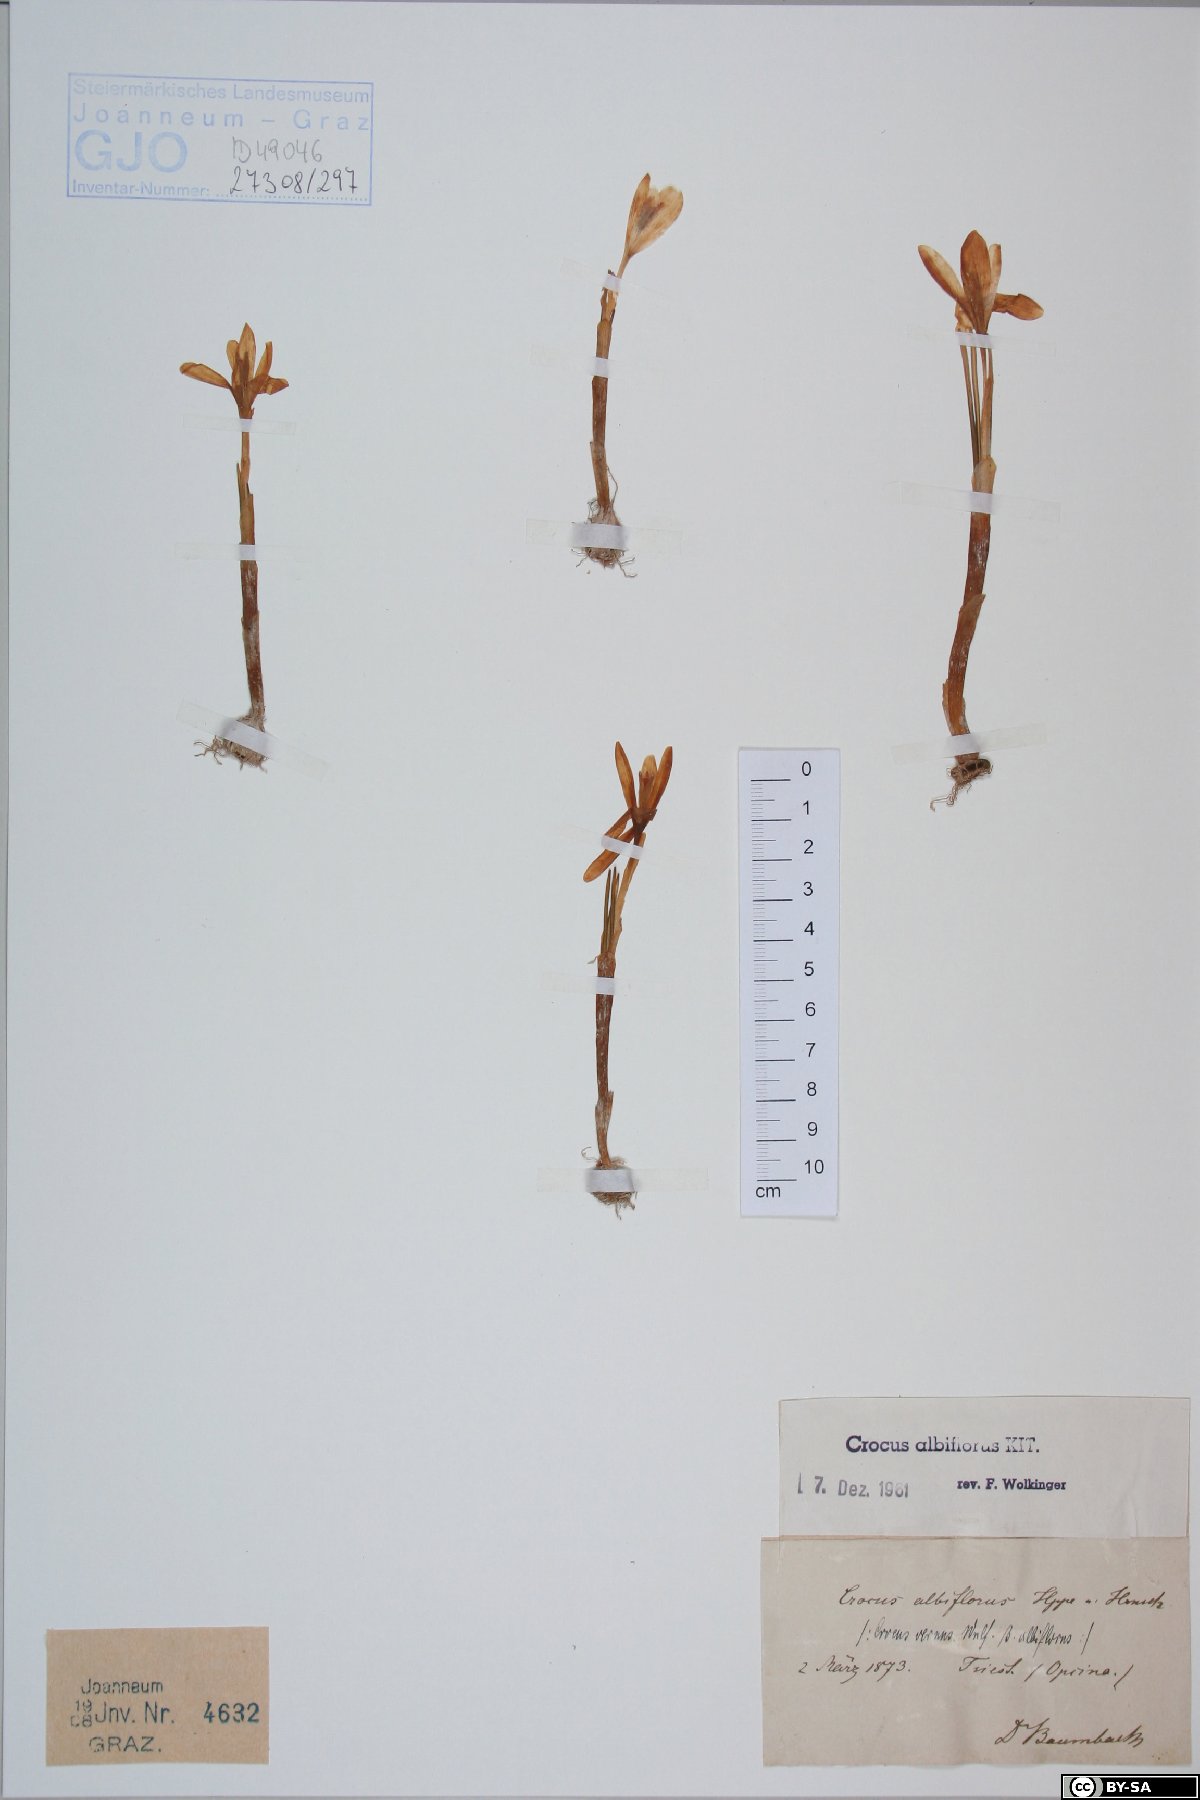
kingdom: Plantae
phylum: Tracheophyta
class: Liliopsida
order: Asparagales
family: Iridaceae
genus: Crocus
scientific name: Crocus vernus
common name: Spring crocus
